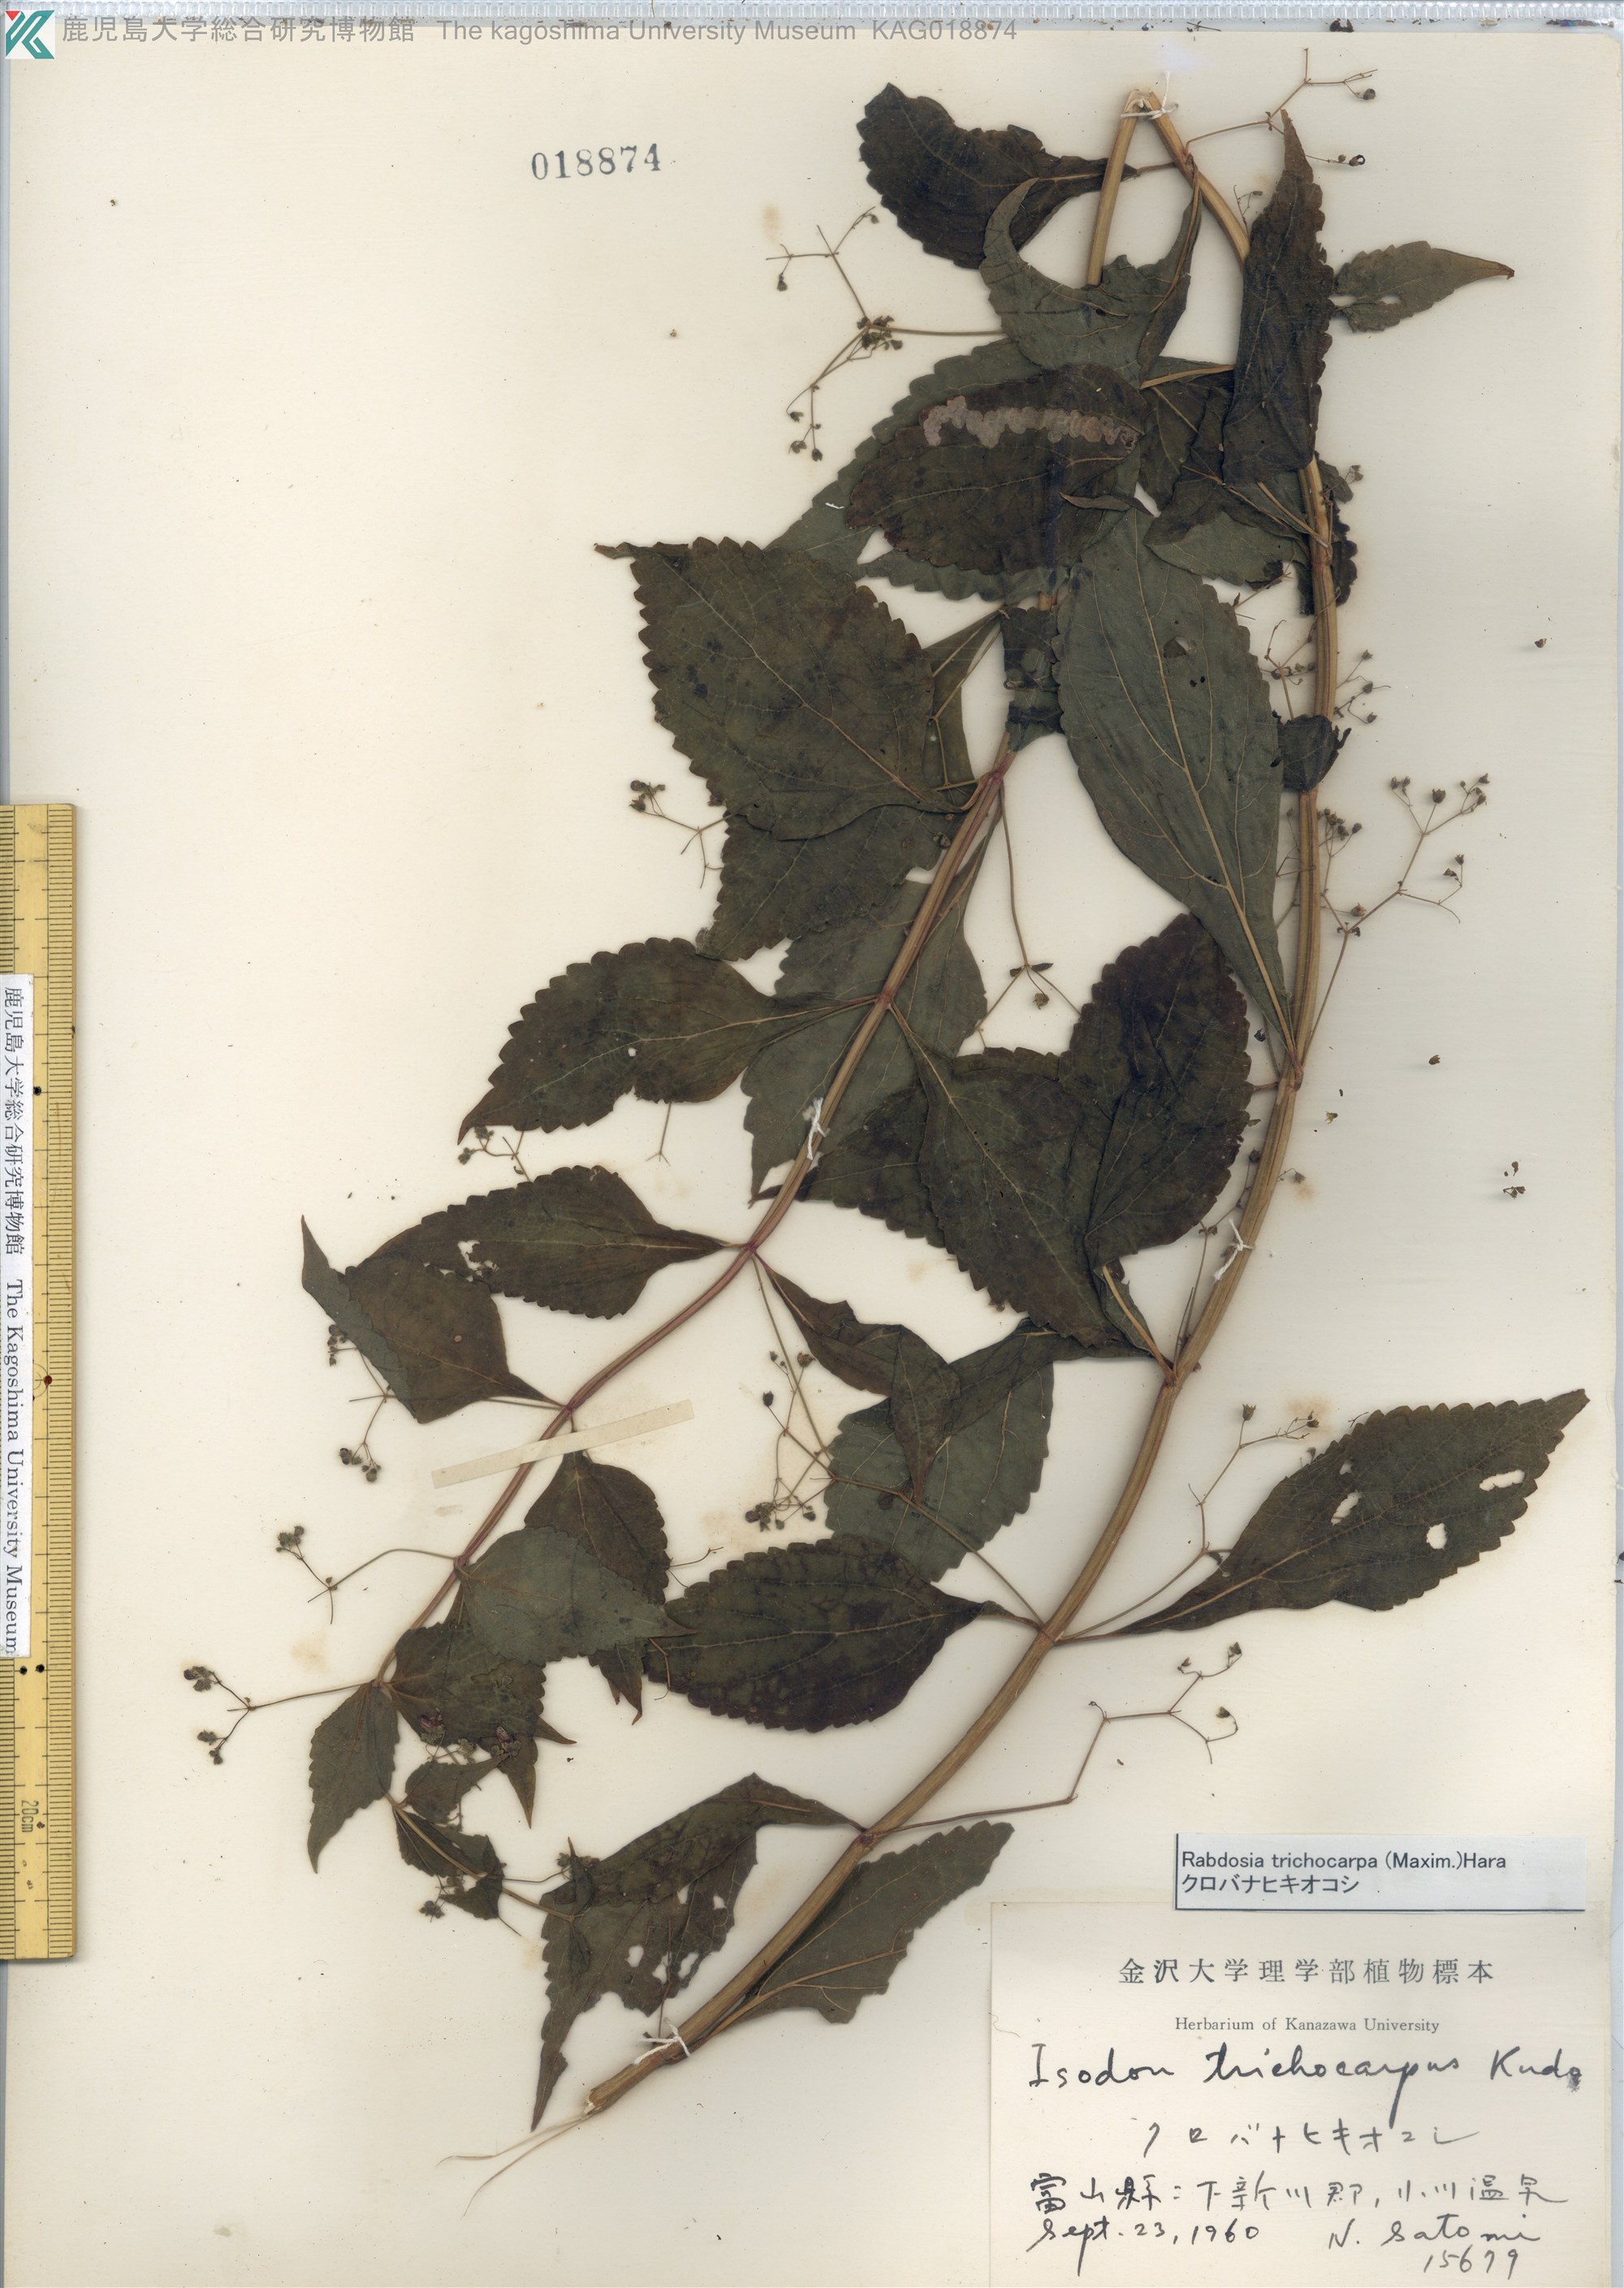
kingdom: Plantae
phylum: Tracheophyta
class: Magnoliopsida
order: Lamiales
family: Lamiaceae
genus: Isodon
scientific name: Isodon trichocarpus
